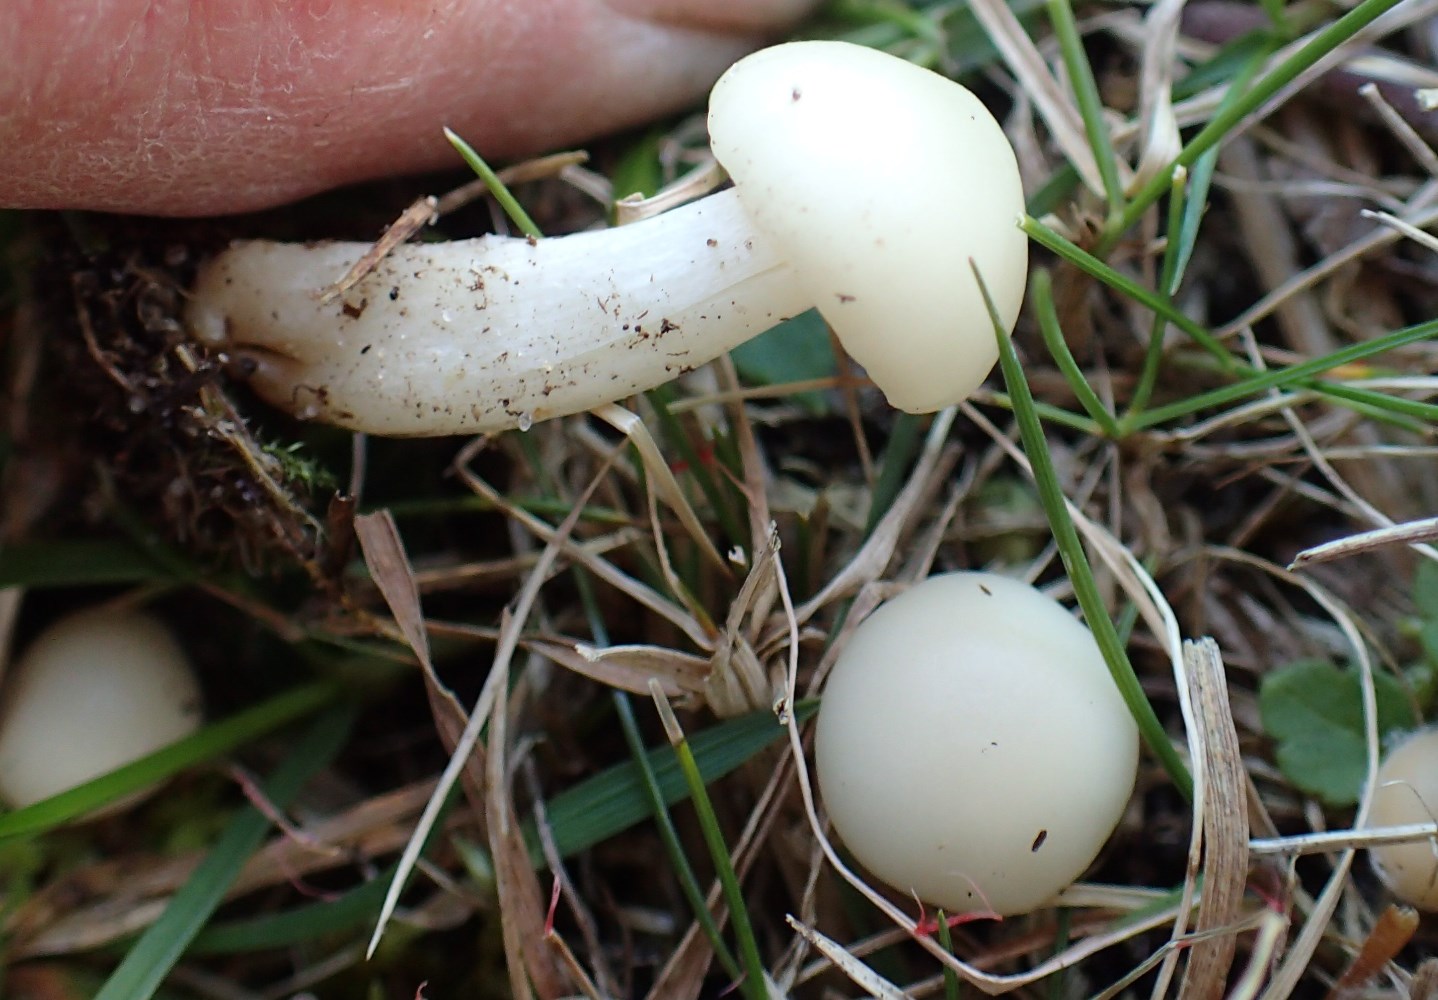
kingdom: Fungi
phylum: Basidiomycota
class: Agaricomycetes
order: Agaricales
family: Hygrophoraceae
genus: Cuphophyllus
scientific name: Cuphophyllus virgineus
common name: snehvid vokshat
